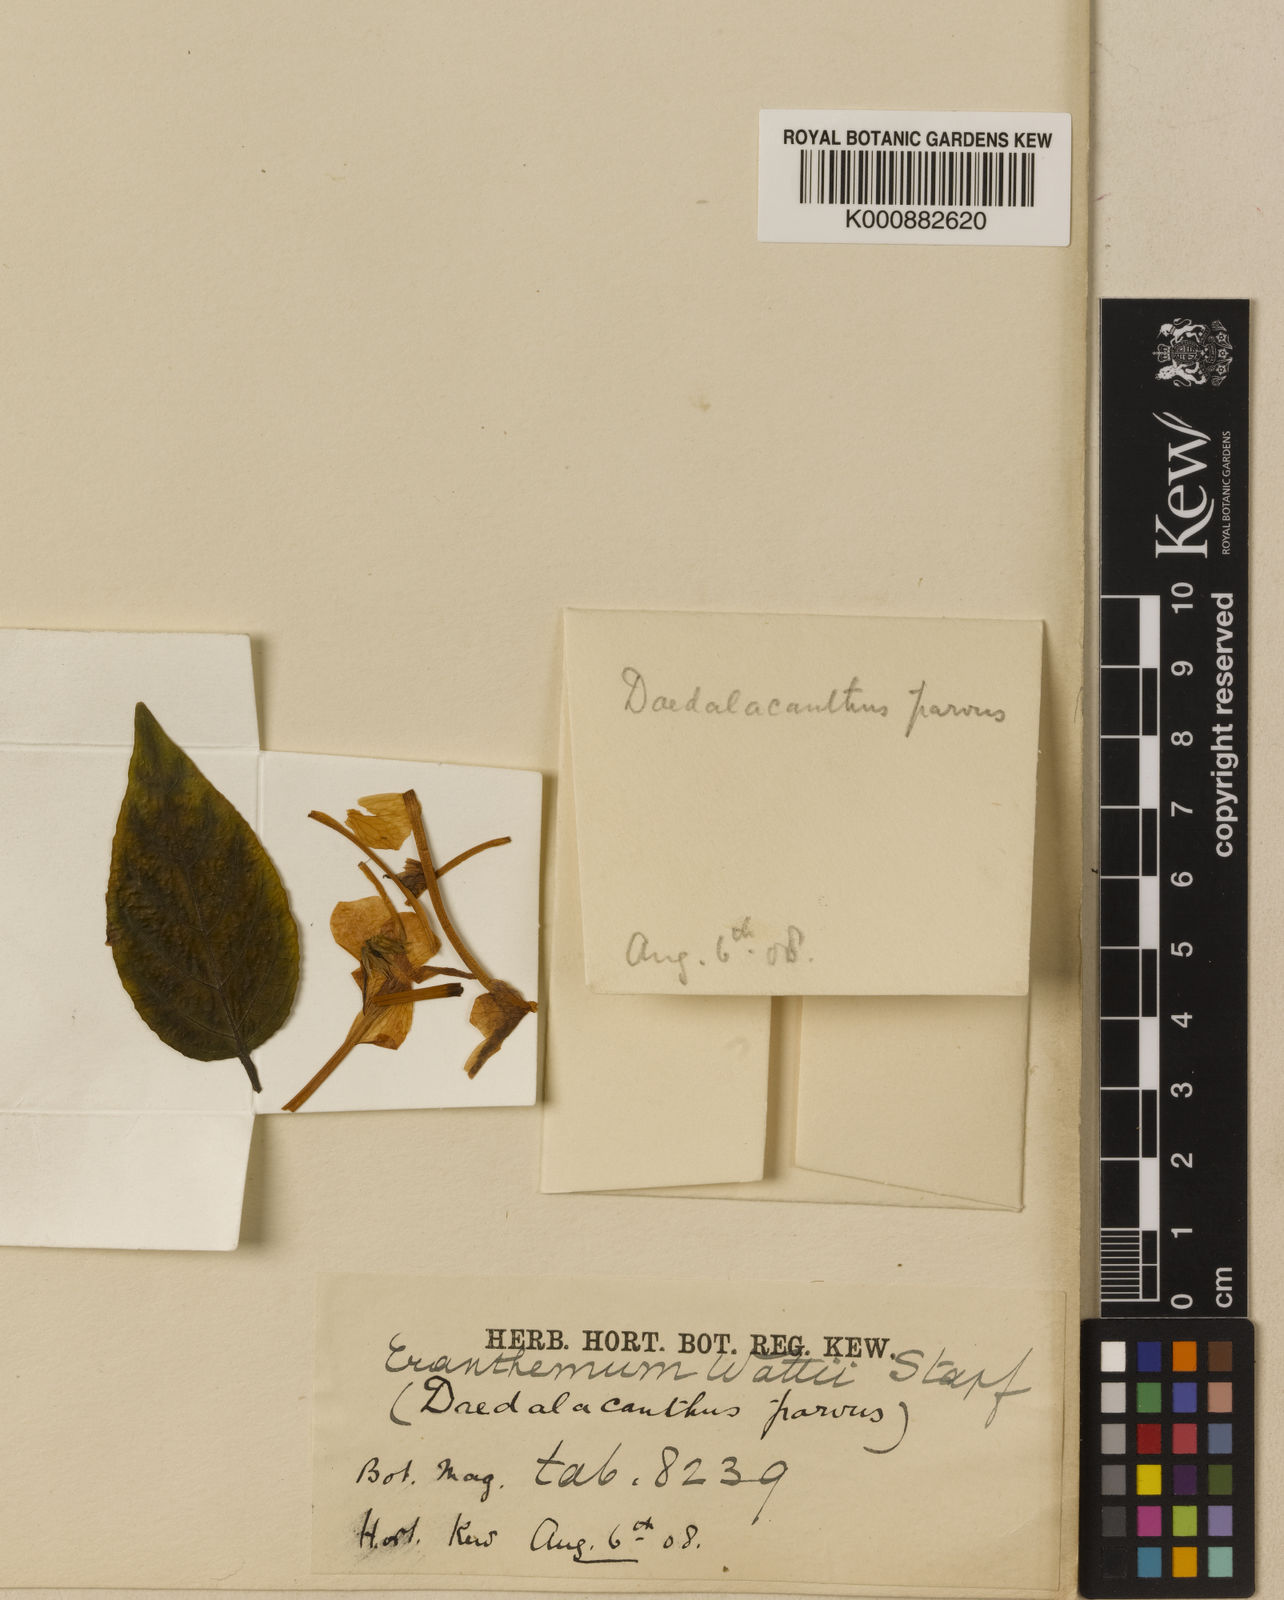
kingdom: Plantae
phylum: Tracheophyta
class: Magnoliopsida
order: Lamiales
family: Acanthaceae
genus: Eranthemum
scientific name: Eranthemum wattii
